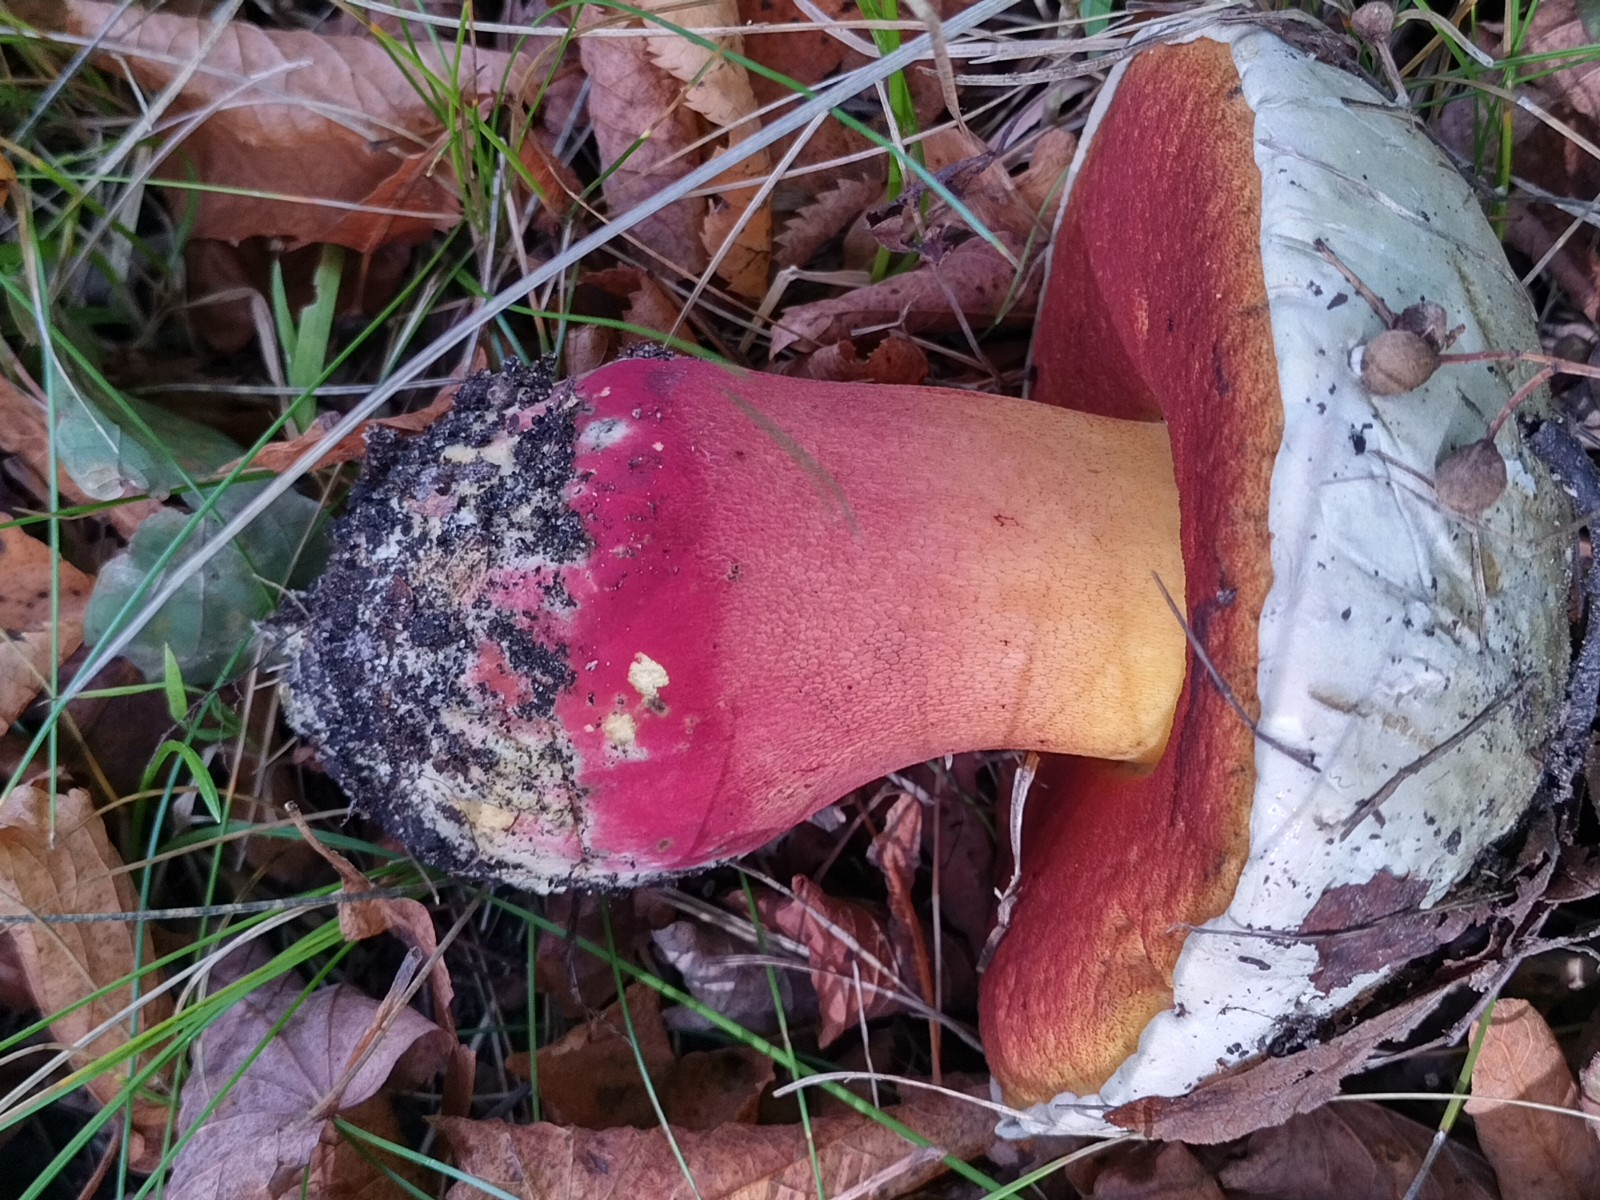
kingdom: Fungi
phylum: Basidiomycota
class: Agaricomycetes
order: Boletales
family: Boletaceae
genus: Rubroboletus
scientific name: Rubroboletus satanas
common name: Satans rørhat
